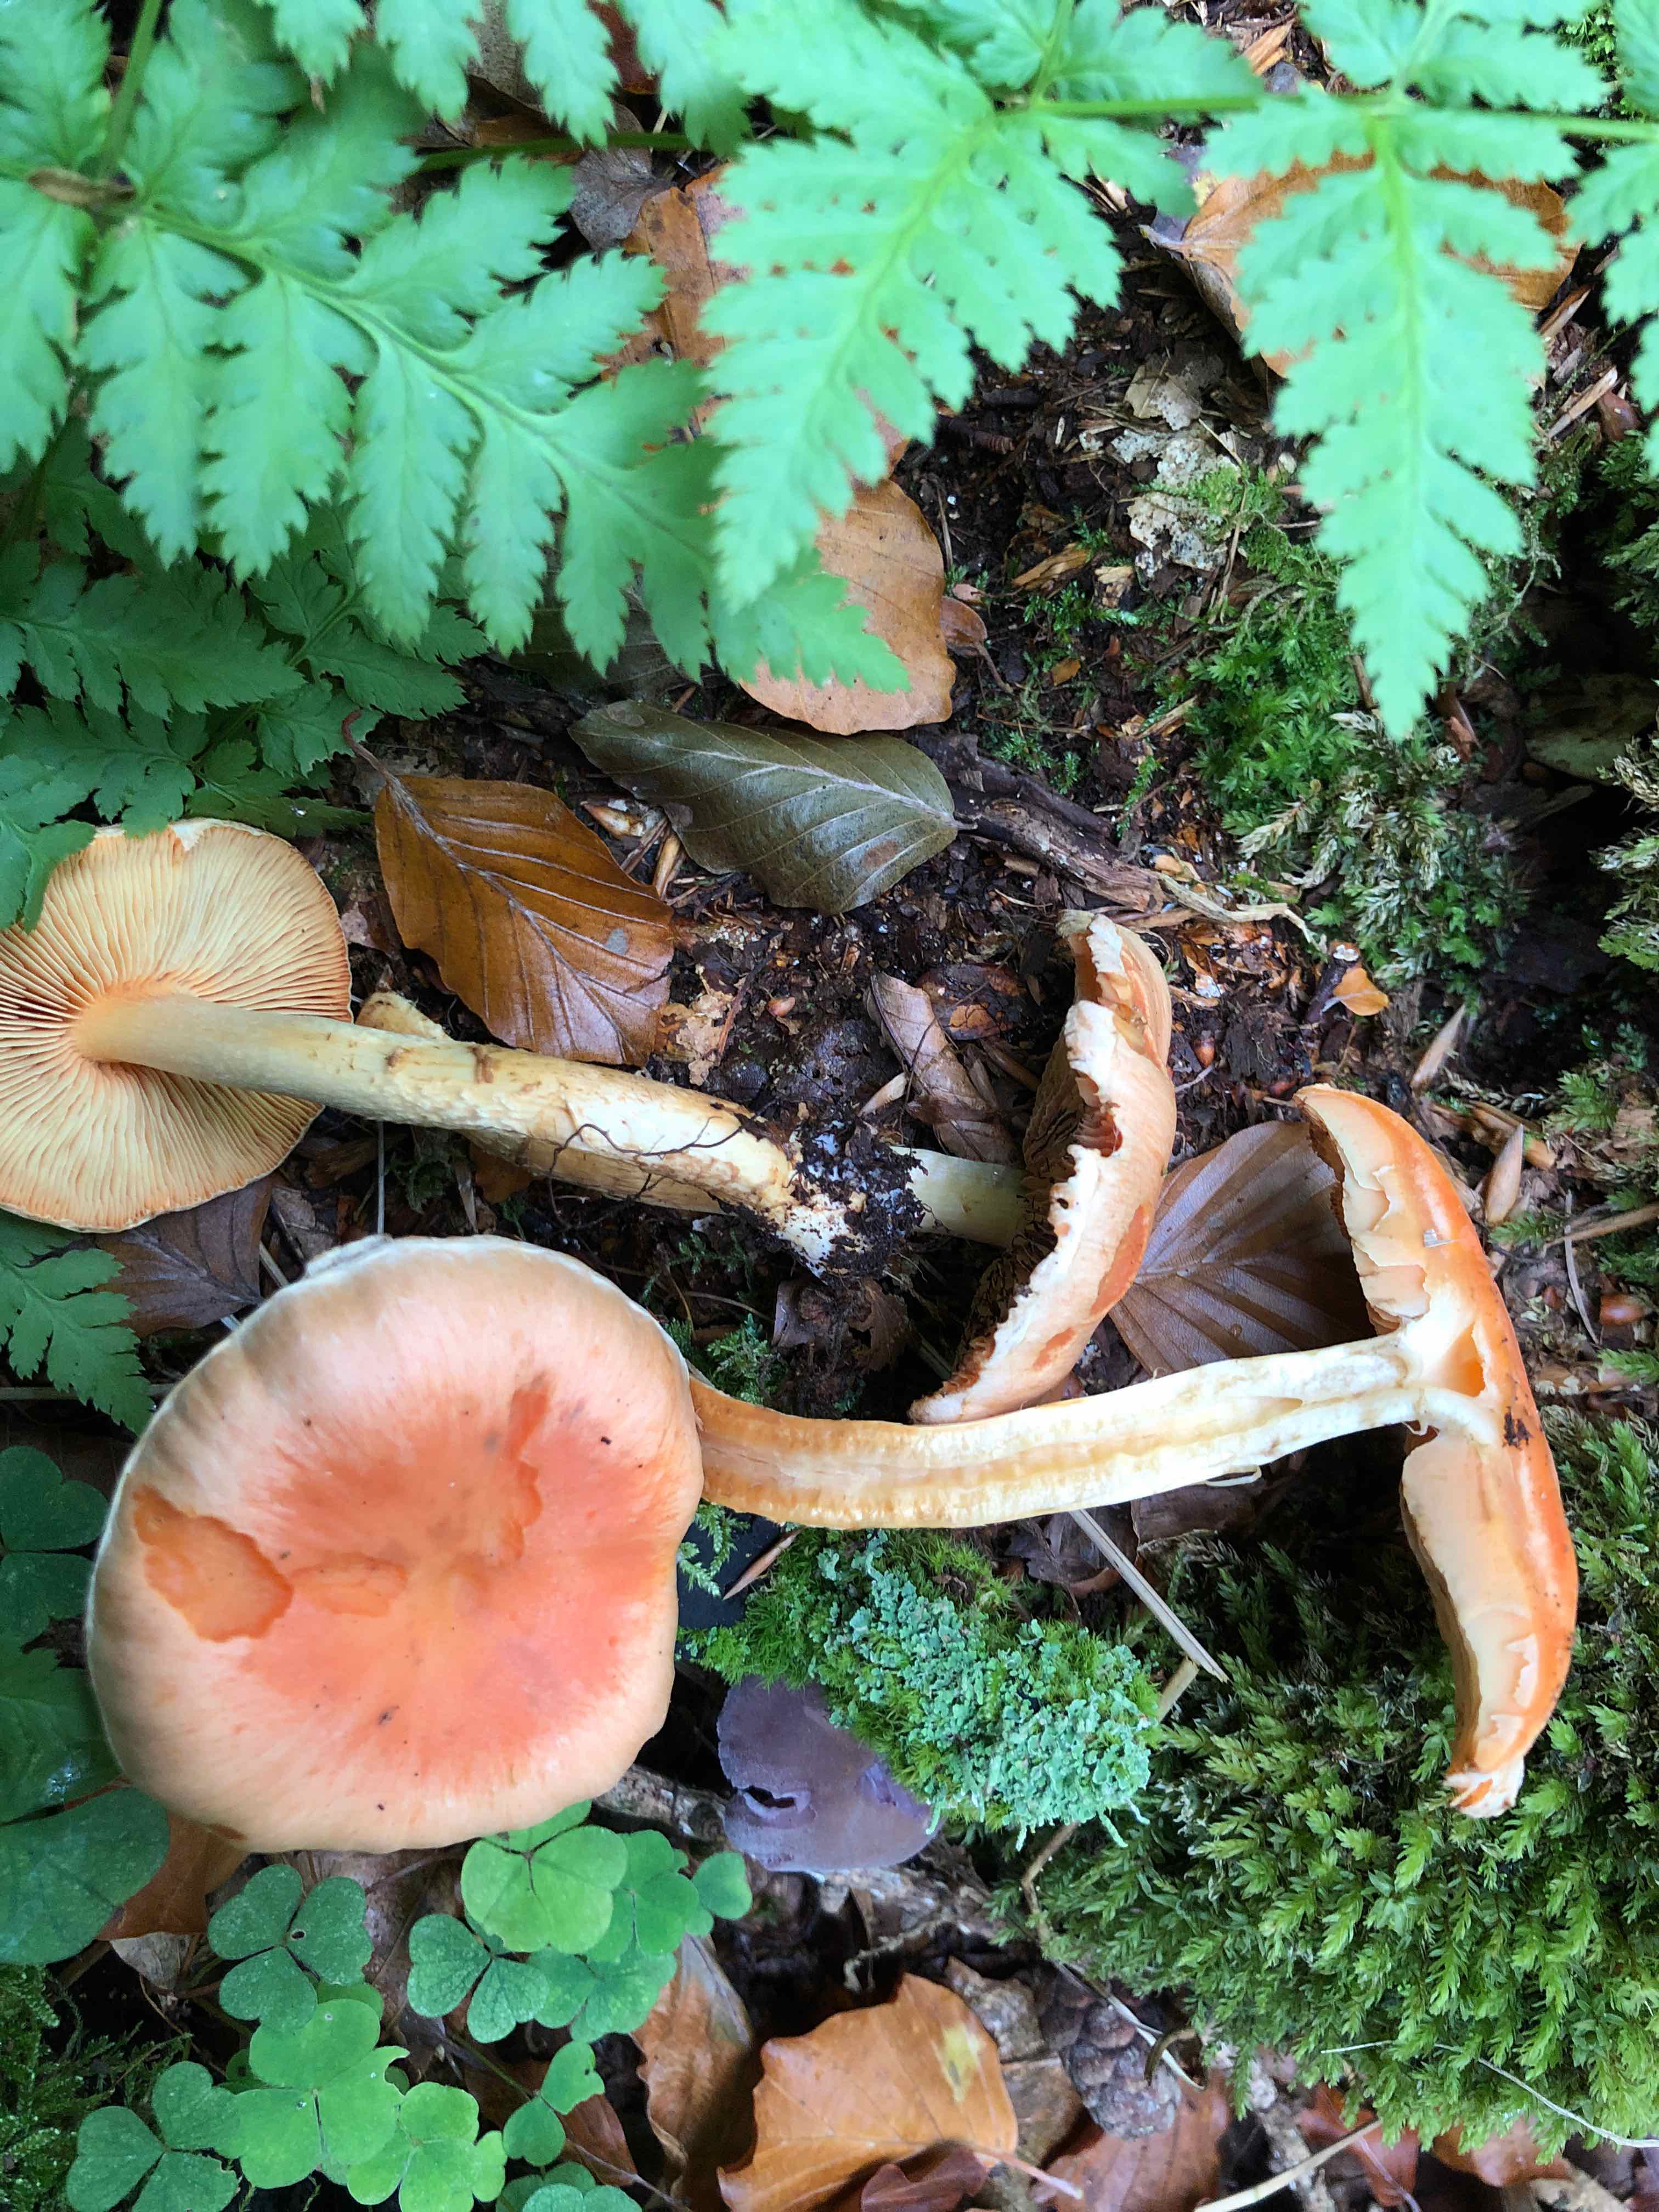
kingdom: Fungi
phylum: Basidiomycota
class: Agaricomycetes
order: Agaricales
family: Strophariaceae
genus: Hypholoma
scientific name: Hypholoma lateritium
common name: teglrød svovlhat
